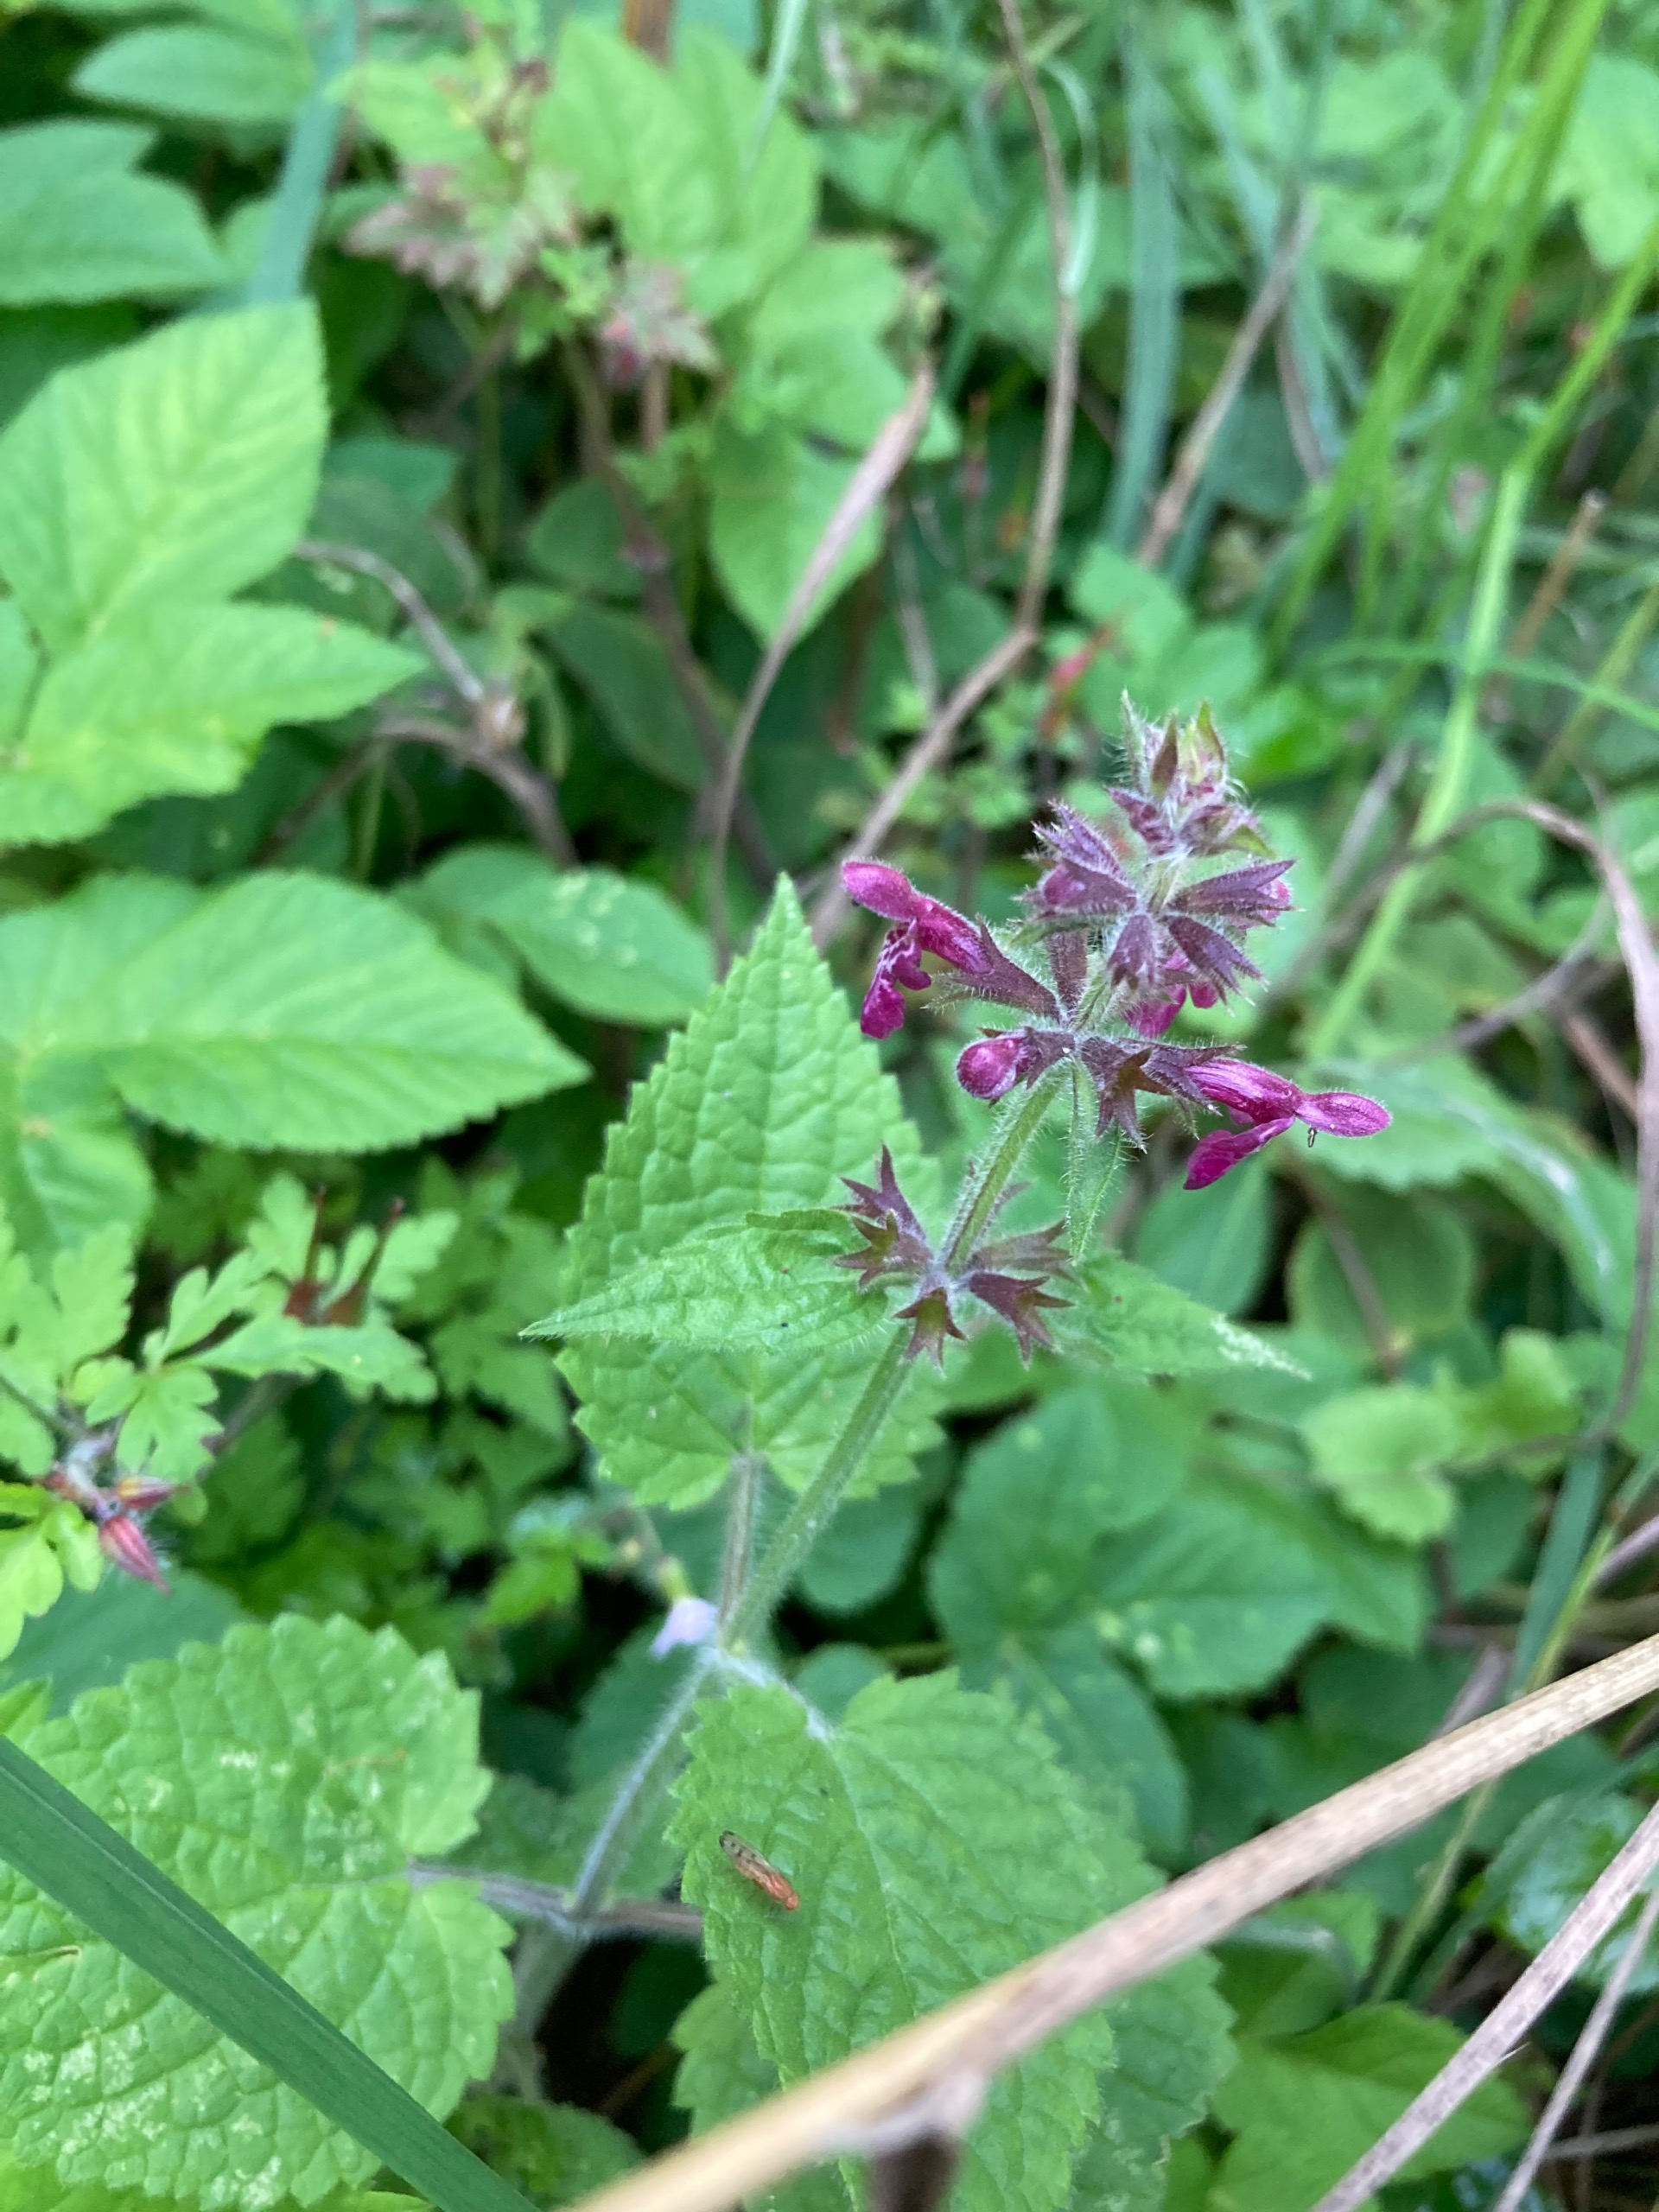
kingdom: Plantae
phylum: Tracheophyta
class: Magnoliopsida
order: Lamiales
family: Lamiaceae
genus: Stachys
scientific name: Stachys sylvatica
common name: Skov-galtetand
